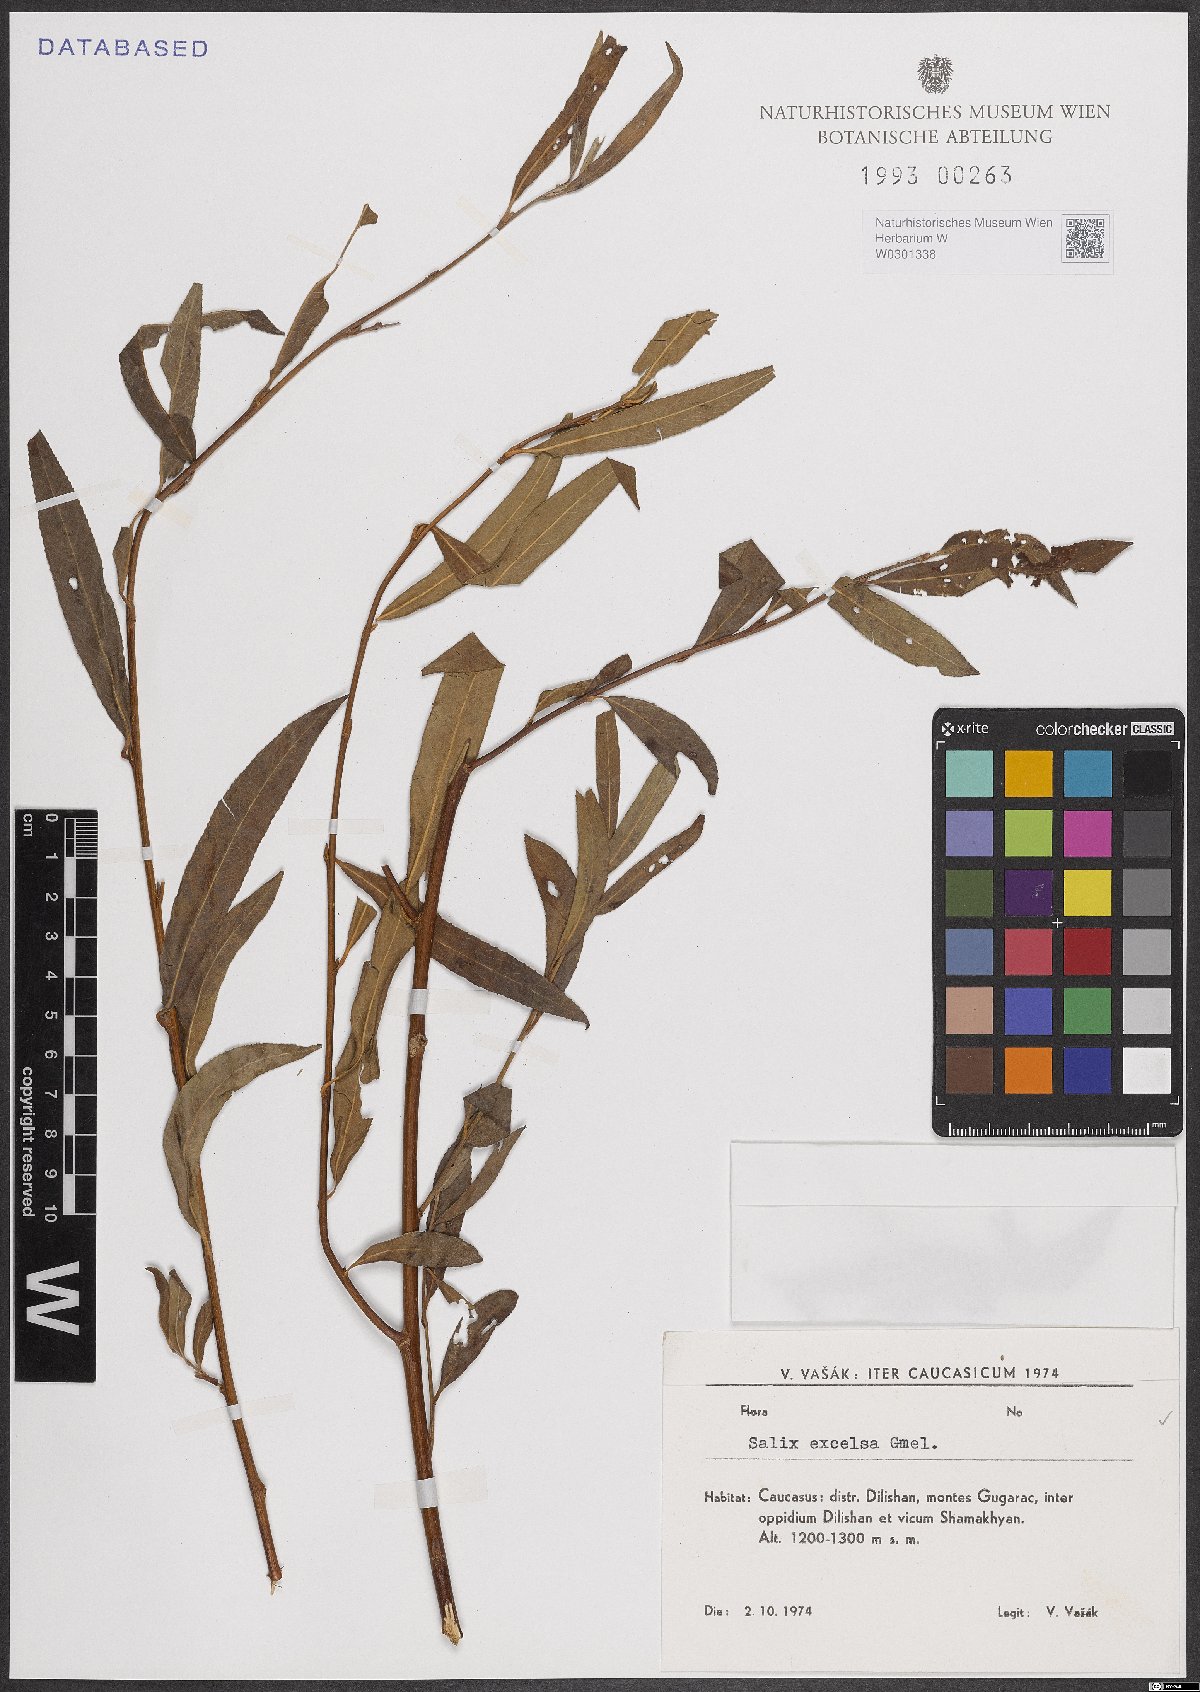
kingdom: Plantae
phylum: Tracheophyta
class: Magnoliopsida
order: Malpighiales
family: Salicaceae
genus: Salix
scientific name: Salix excelsa
